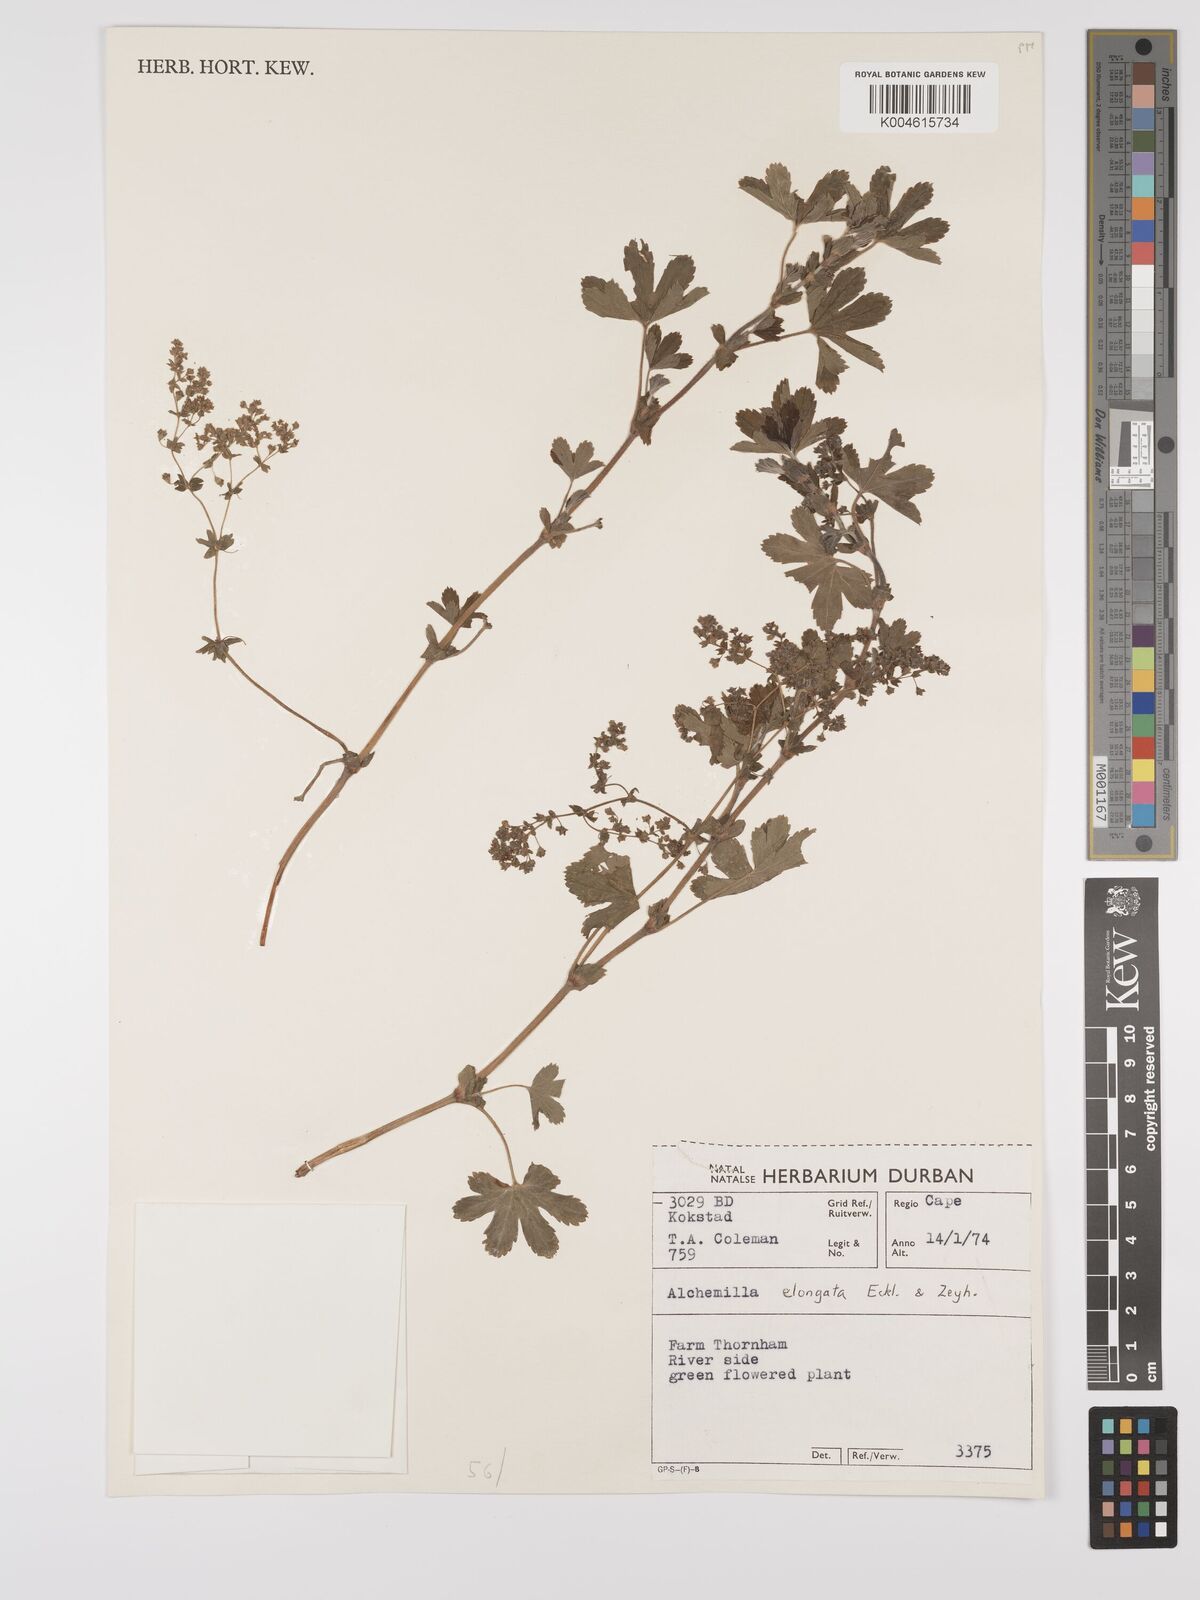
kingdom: Plantae
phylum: Tracheophyta
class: Magnoliopsida
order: Rosales
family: Rosaceae
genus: Alchemilla
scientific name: Alchemilla elongata
